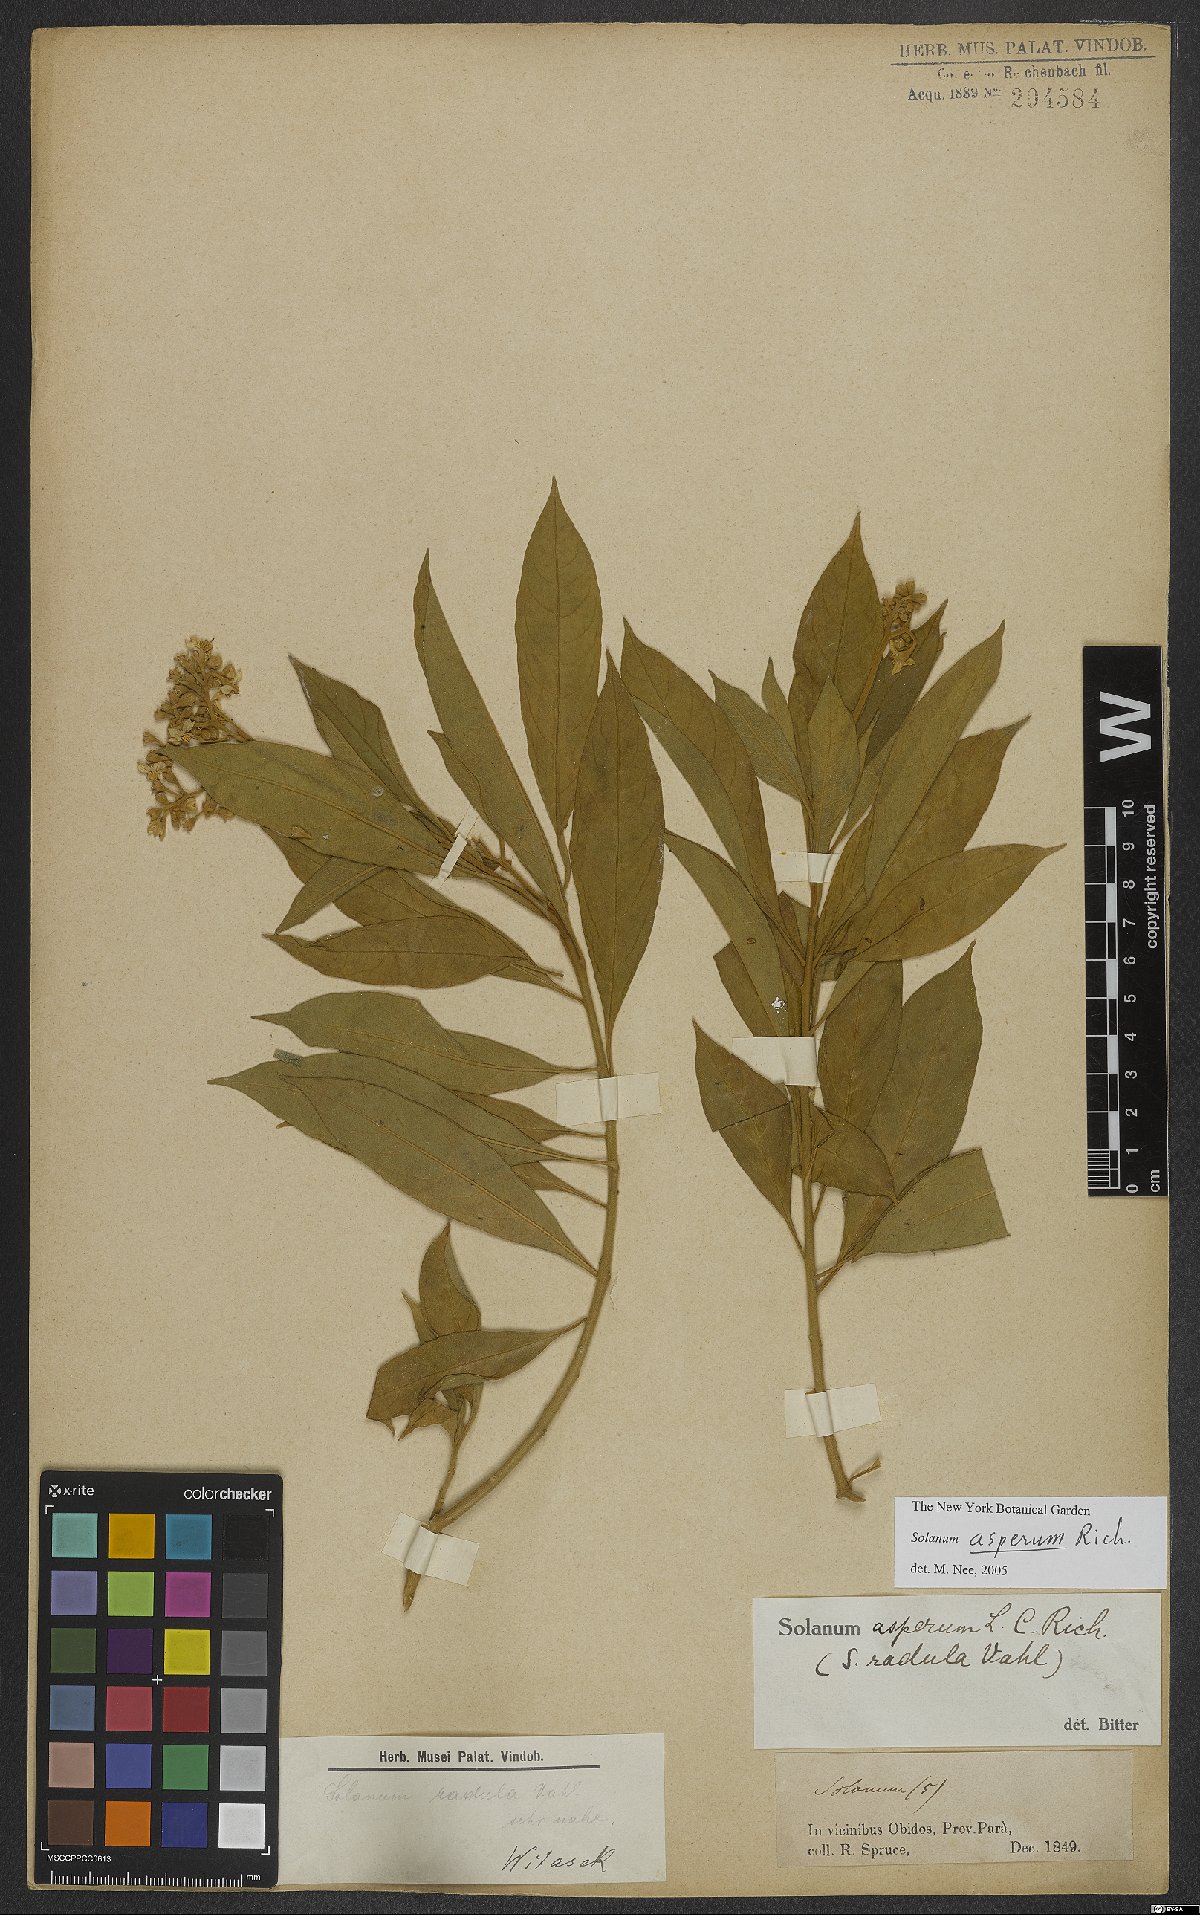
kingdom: Plantae
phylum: Tracheophyta
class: Magnoliopsida
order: Solanales
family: Solanaceae
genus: Solanum
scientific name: Solanum asperum
